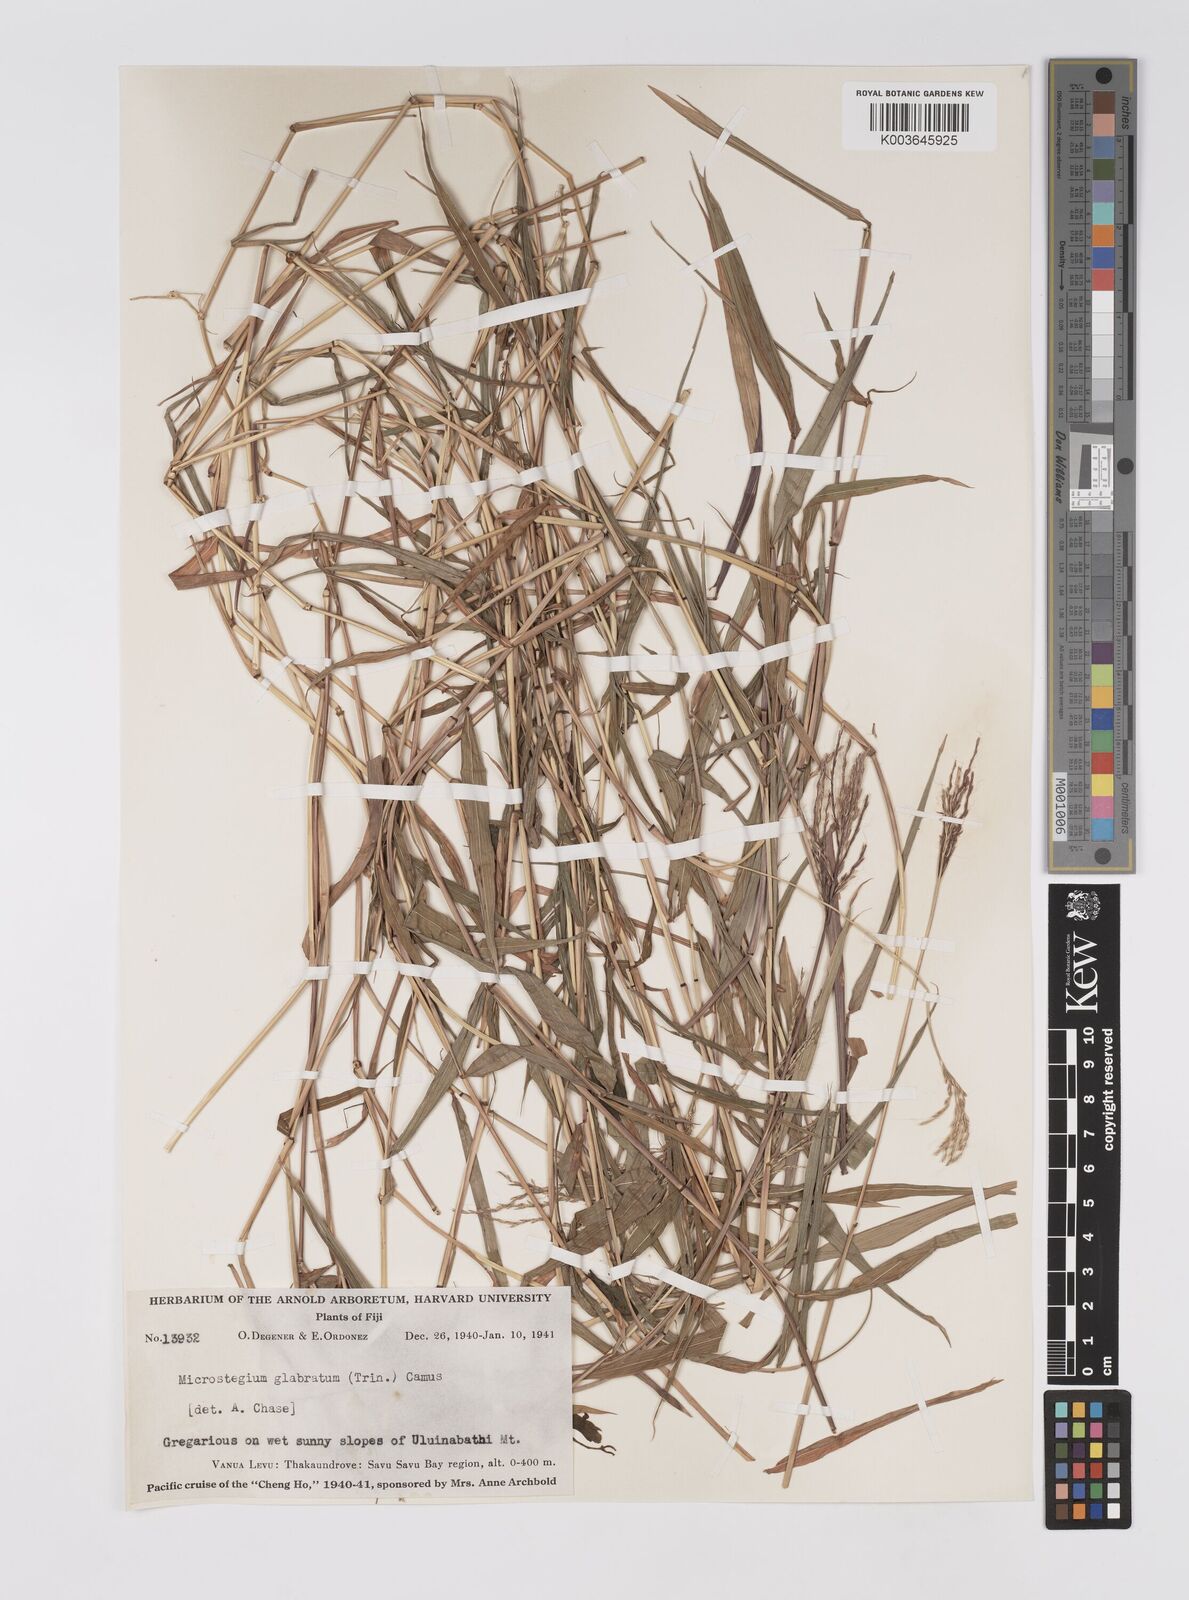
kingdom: Plantae
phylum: Tracheophyta
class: Liliopsida
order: Poales
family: Poaceae
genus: Microstegium
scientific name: Microstegium glabratum
